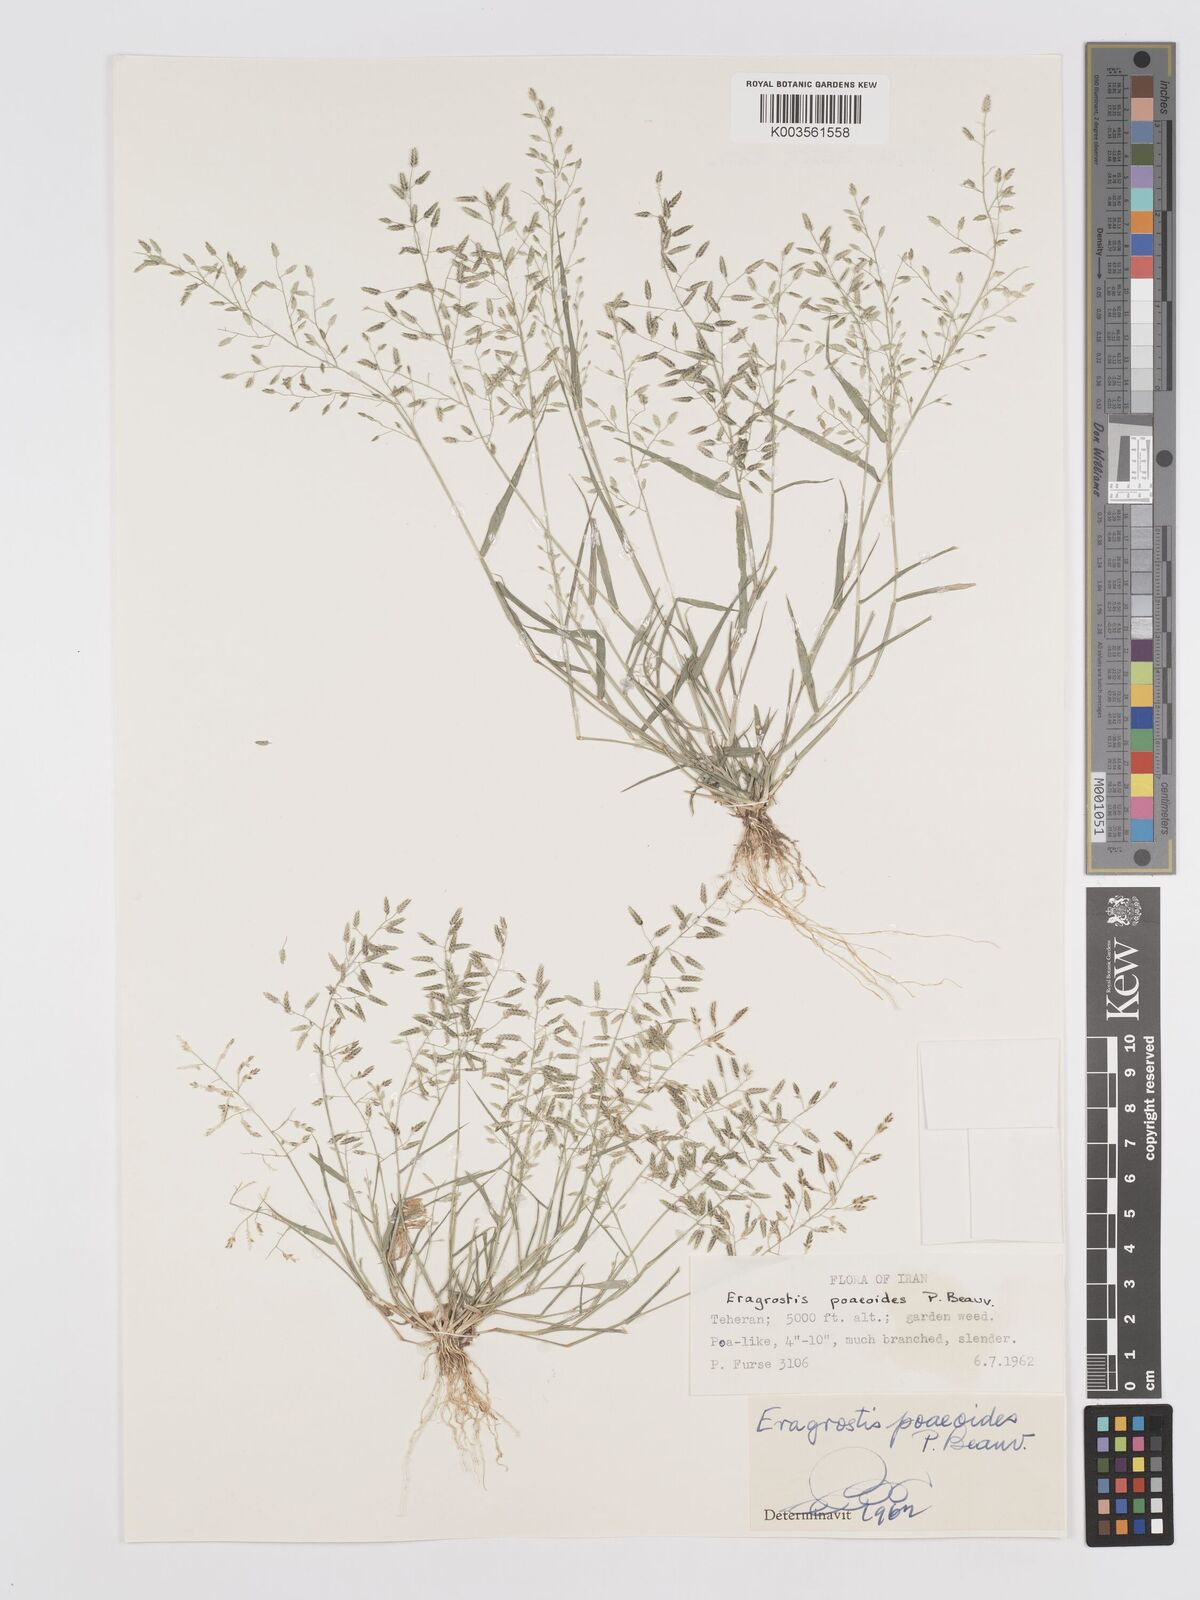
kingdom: Plantae
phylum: Tracheophyta
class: Liliopsida
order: Poales
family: Poaceae
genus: Eragrostis
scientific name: Eragrostis minor
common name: Small love-grass
